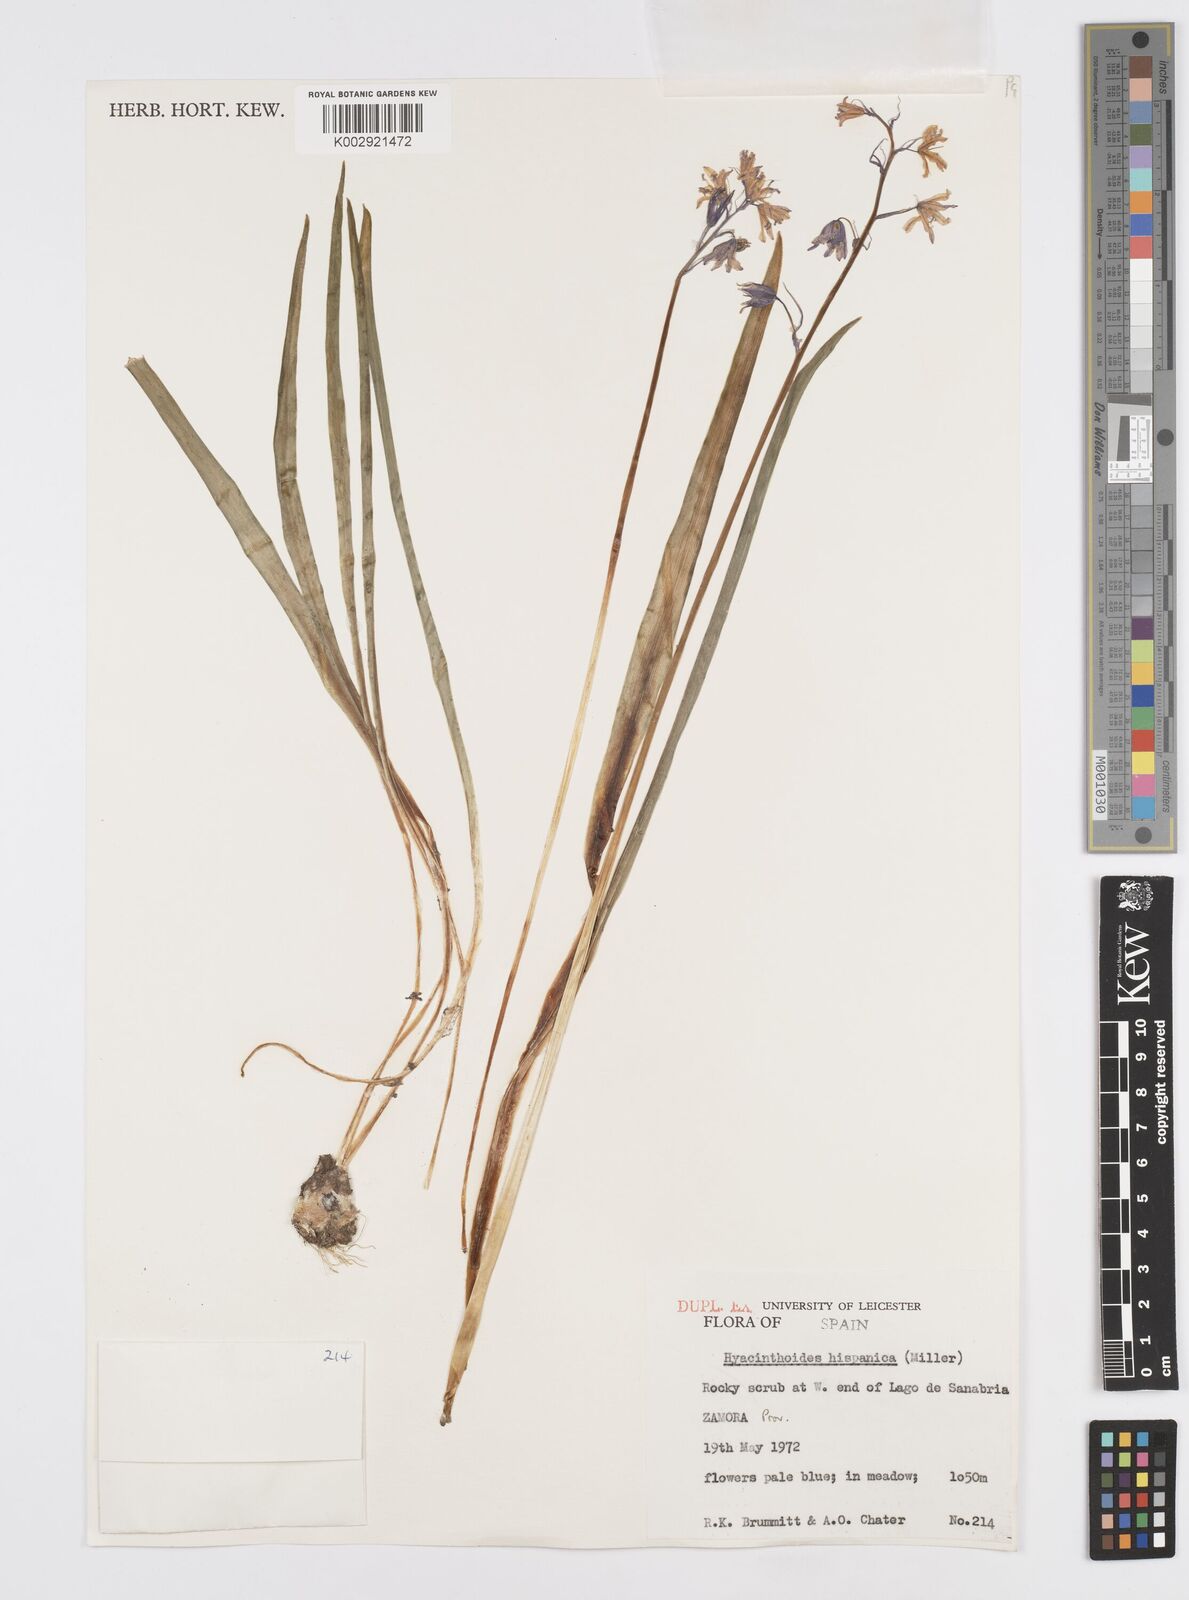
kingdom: Plantae
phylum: Tracheophyta
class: Liliopsida
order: Asparagales
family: Asparagaceae
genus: Hyacinthoides
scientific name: Hyacinthoides hispanica
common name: Spanish bluebell
